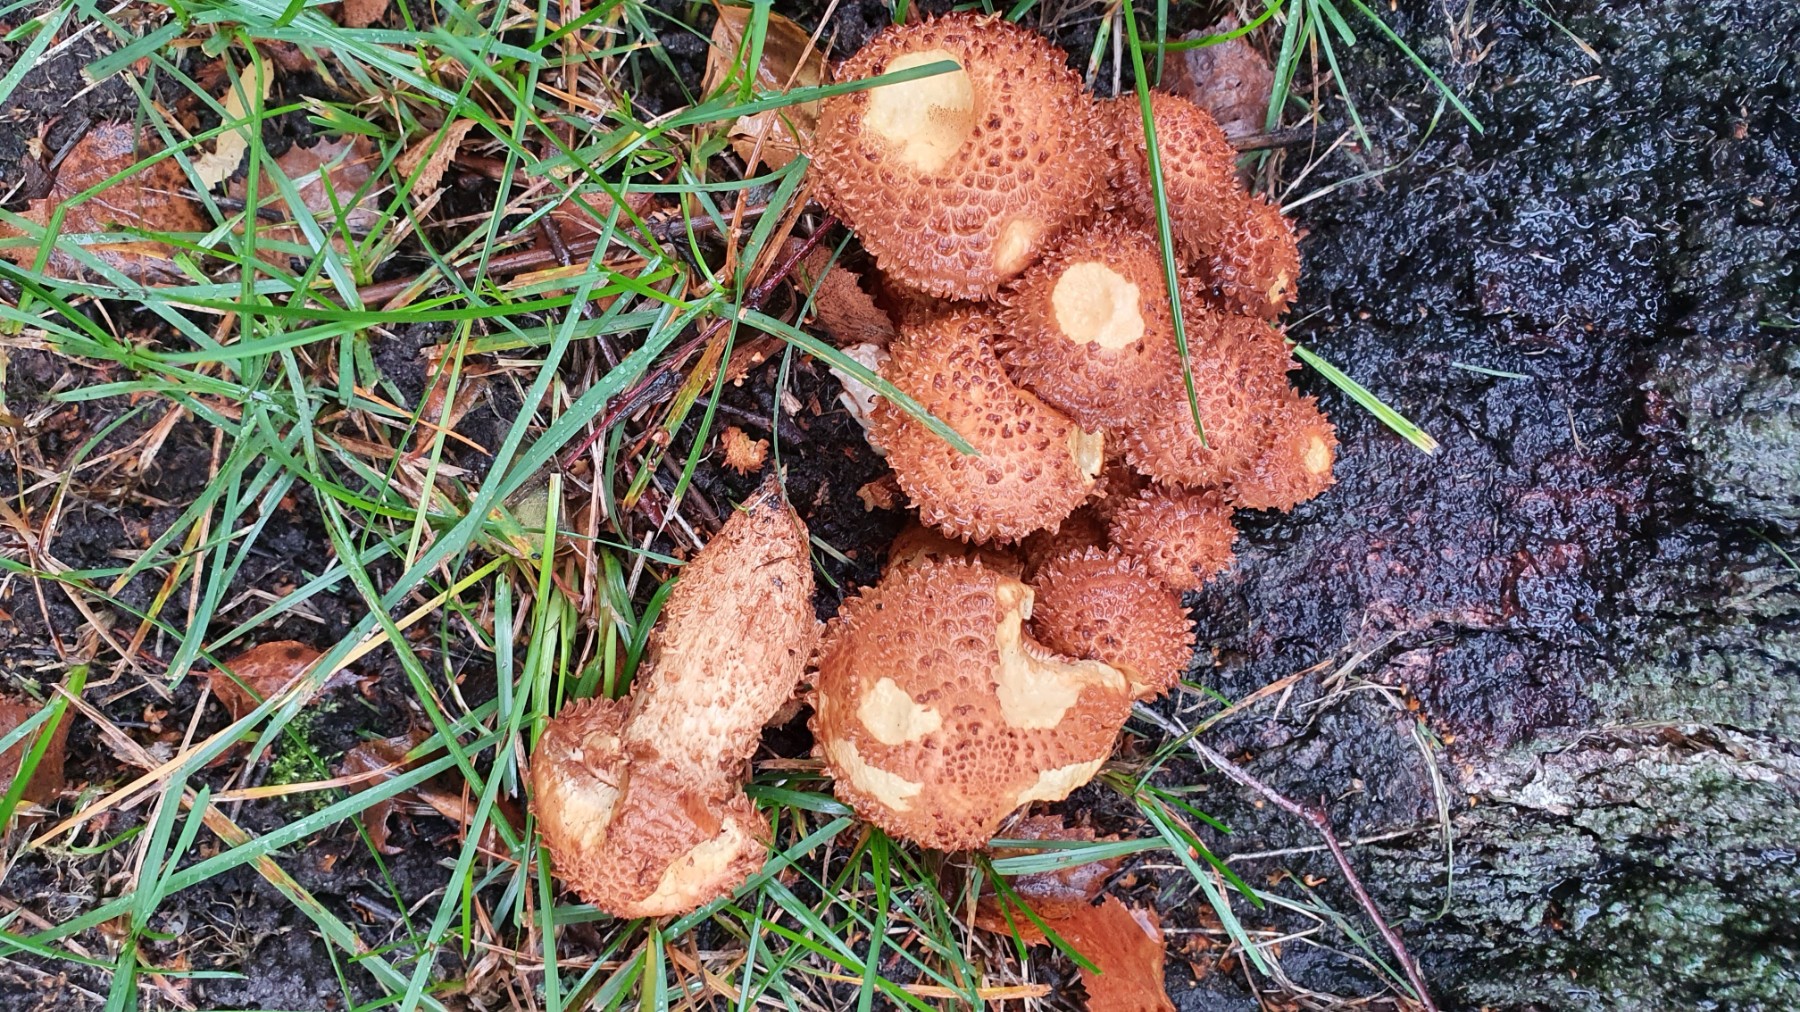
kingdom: Fungi
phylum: Basidiomycota
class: Agaricomycetes
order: Agaricales
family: Strophariaceae
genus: Pholiota
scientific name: Pholiota squarrosa
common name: krumskællet skælhat
